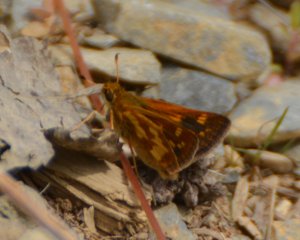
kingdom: Animalia
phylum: Arthropoda
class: Insecta
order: Lepidoptera
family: Hesperiidae
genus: Polites
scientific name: Polites coras
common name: Peck's Skipper
